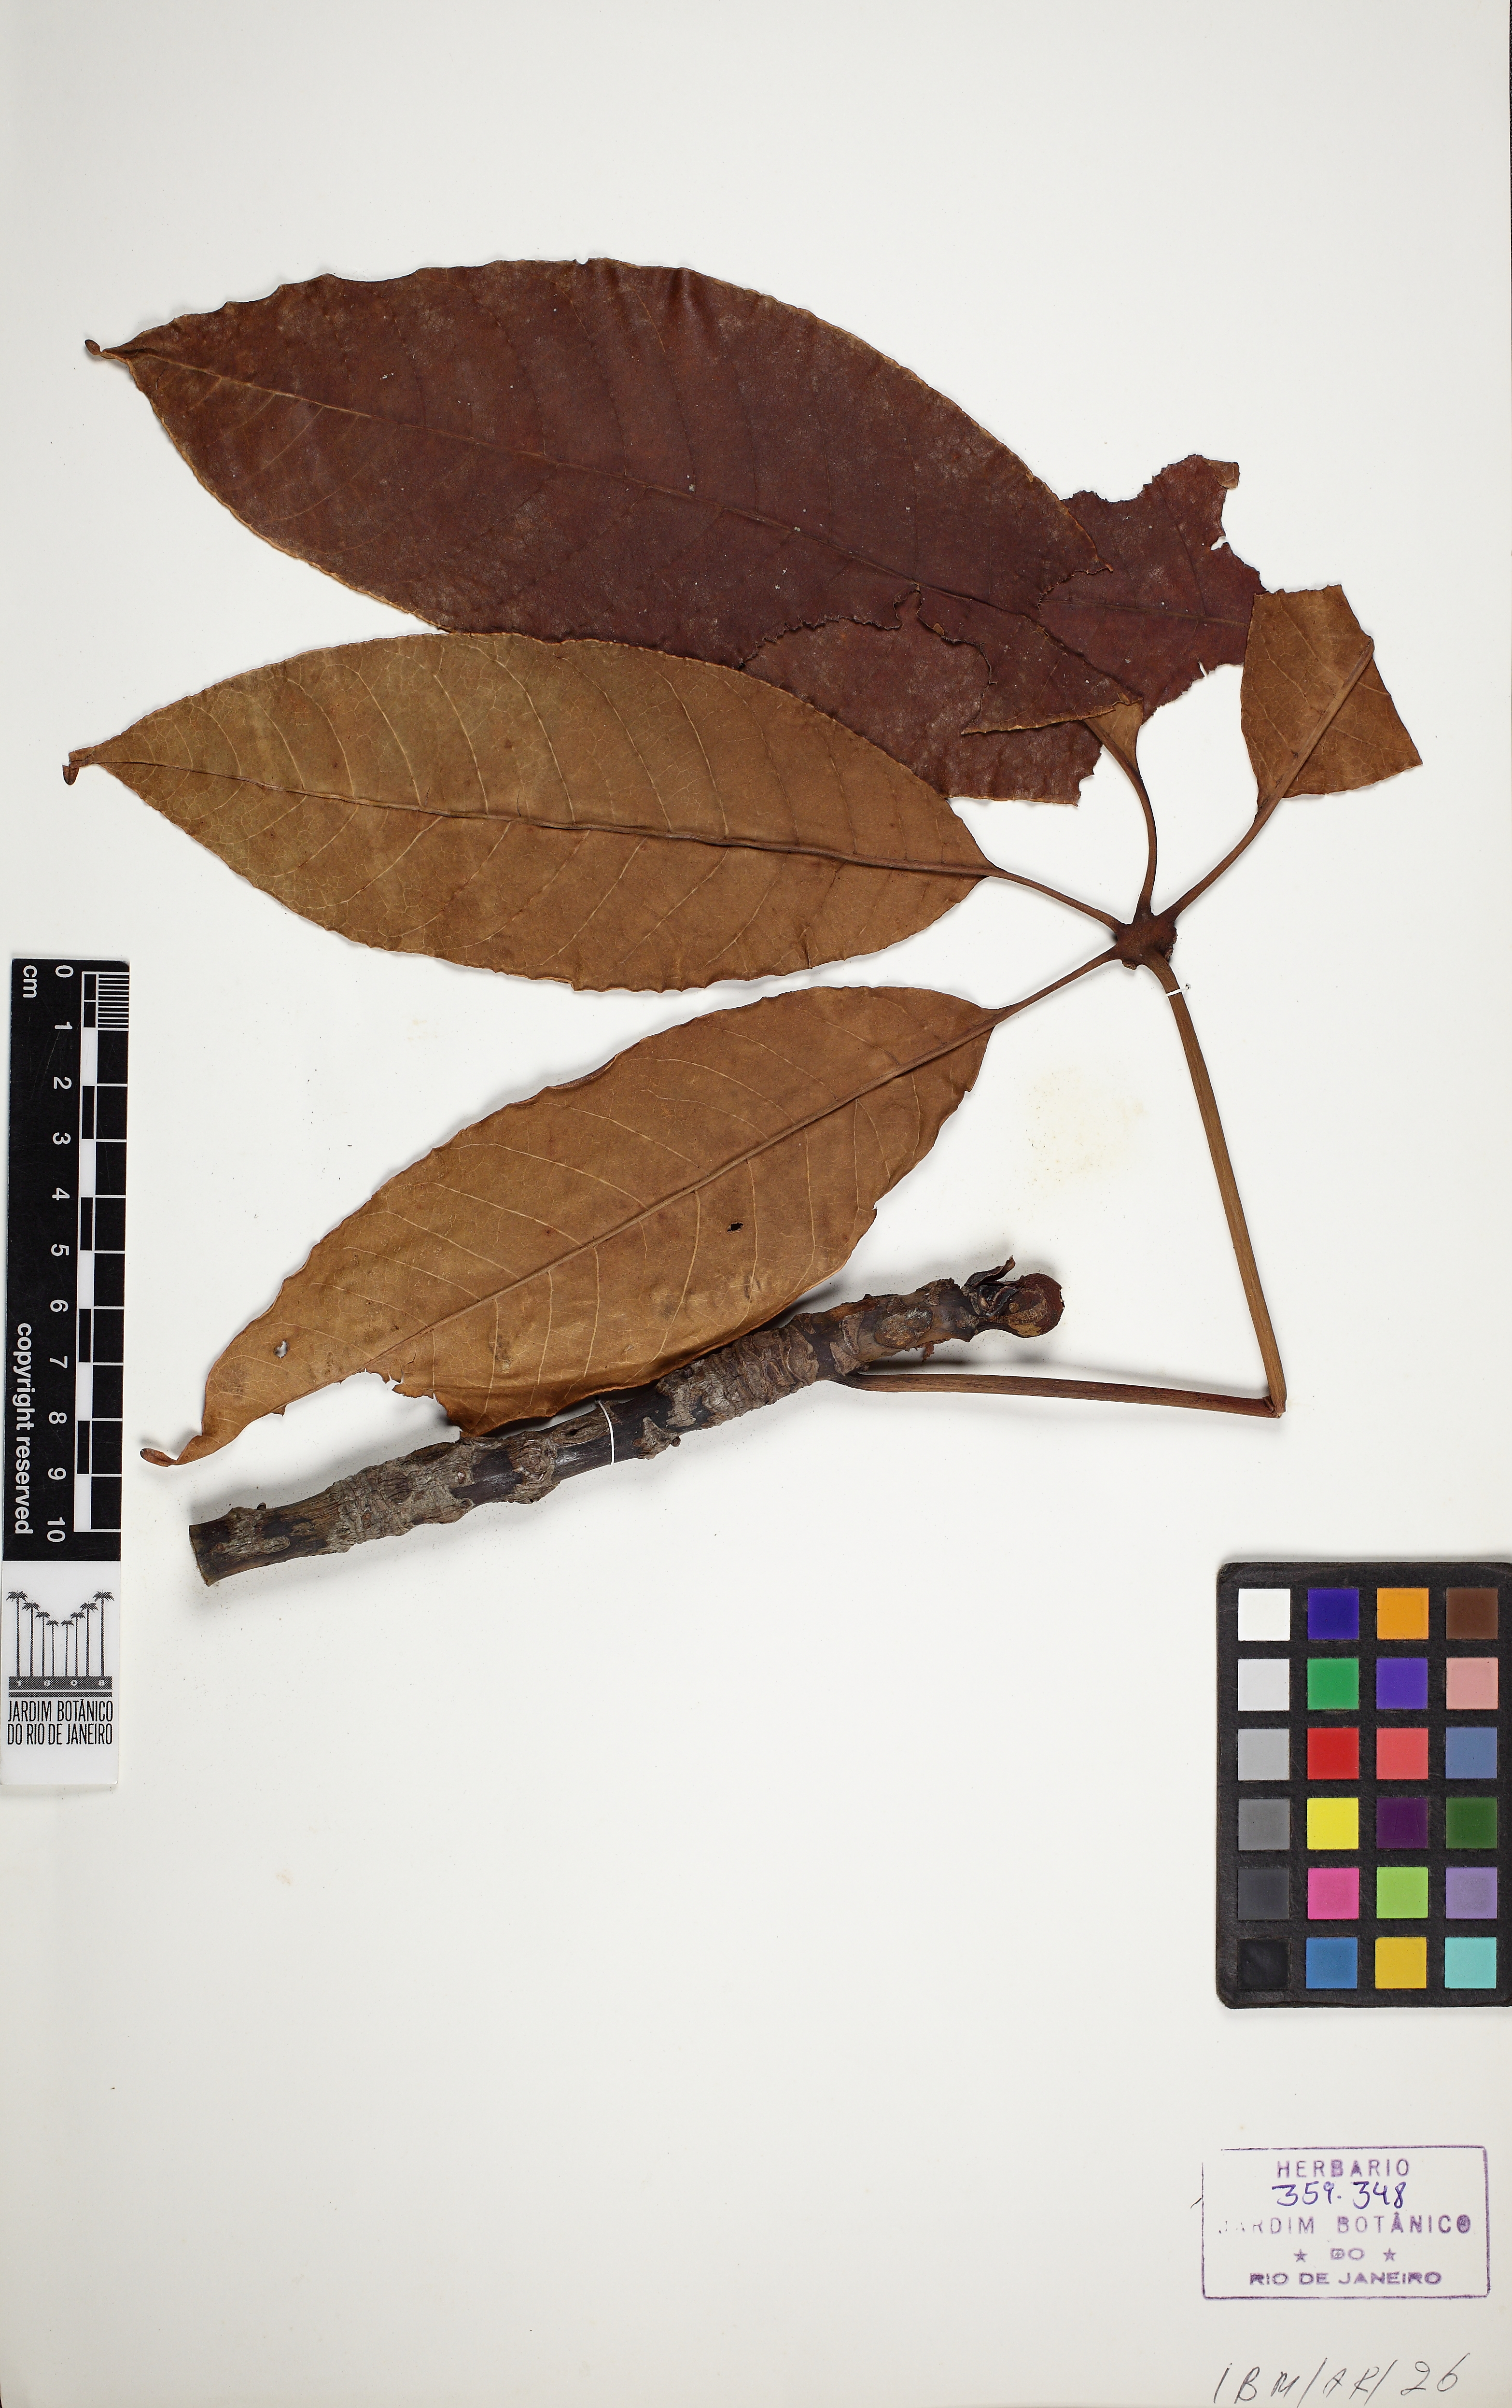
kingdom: Plantae
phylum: Tracheophyta
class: Magnoliopsida
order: Malvales
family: Malvaceae
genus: Pseudobombax
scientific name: Pseudobombax munguba
